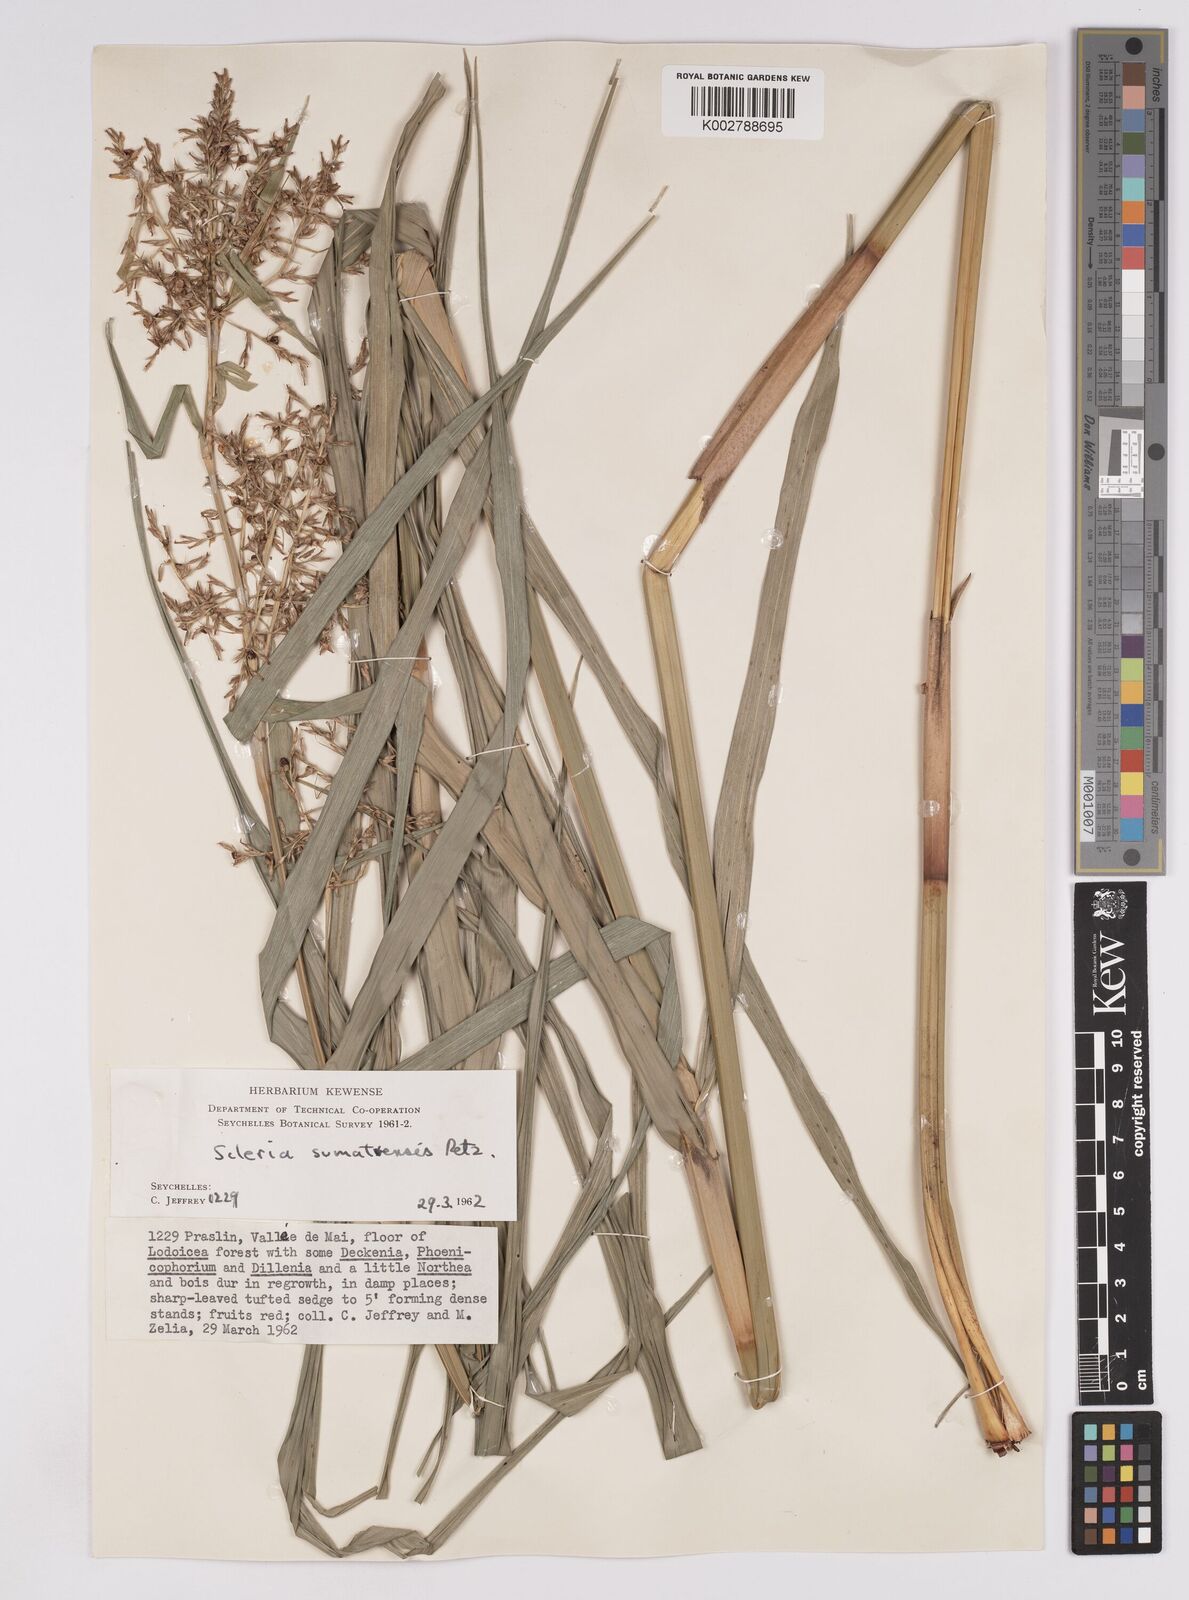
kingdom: Plantae
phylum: Tracheophyta
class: Liliopsida
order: Poales
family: Cyperaceae
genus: Scleria
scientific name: Scleria sumatrensis
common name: Sumatran scleria
